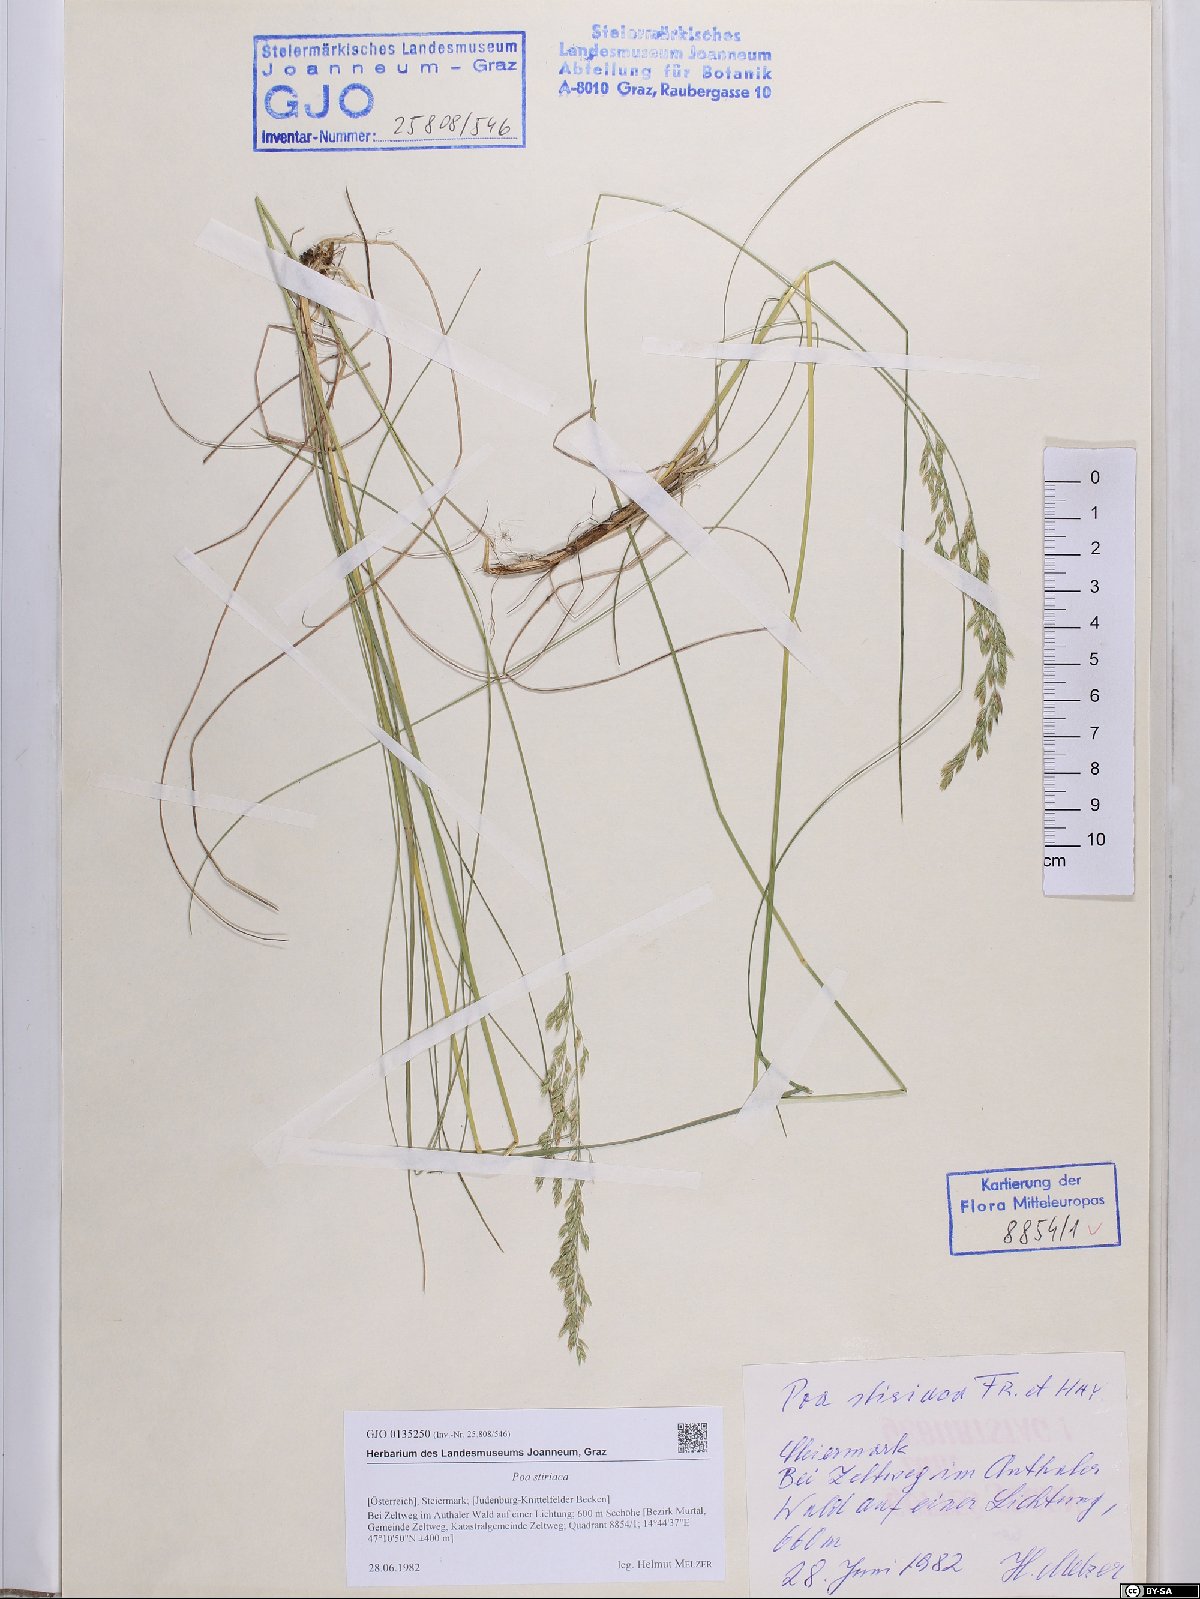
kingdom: Plantae
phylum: Tracheophyta
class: Liliopsida
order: Poales
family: Poaceae
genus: Poa
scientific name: Poa stiriaca
